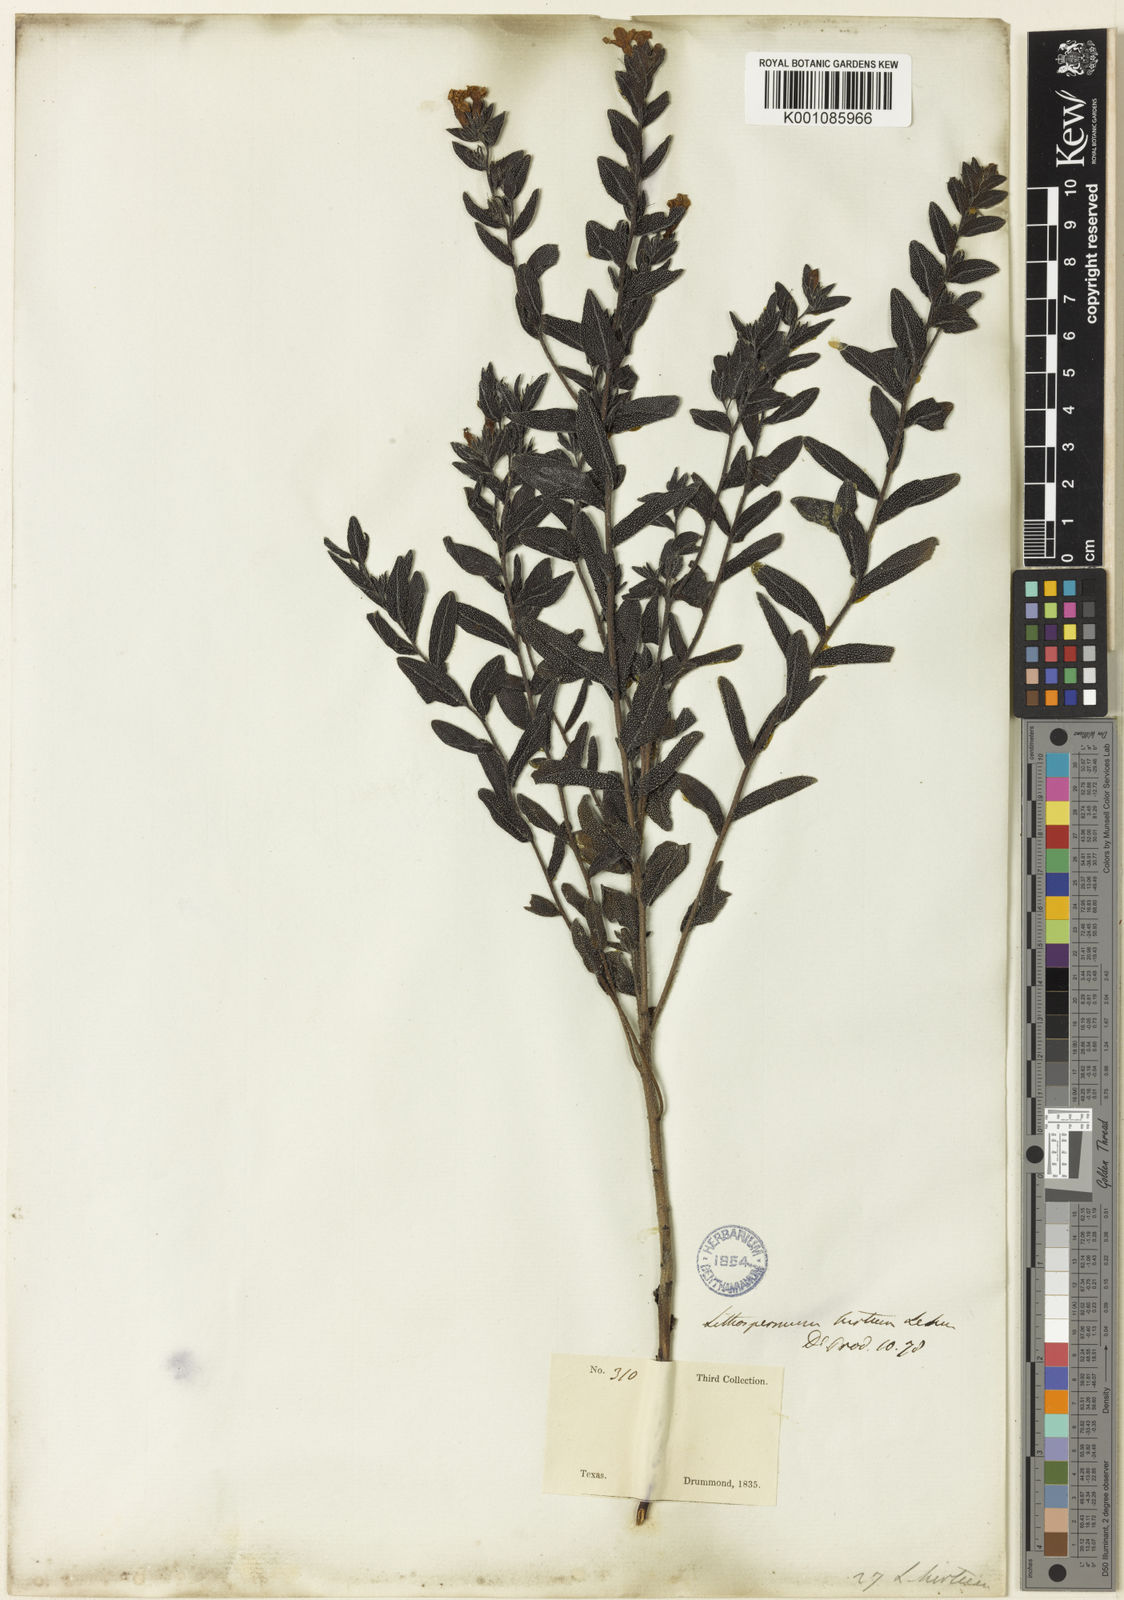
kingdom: Plantae
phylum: Tracheophyta
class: Magnoliopsida
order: Boraginales
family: Boraginaceae
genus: Lithospermum
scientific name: Lithospermum caroliniense
